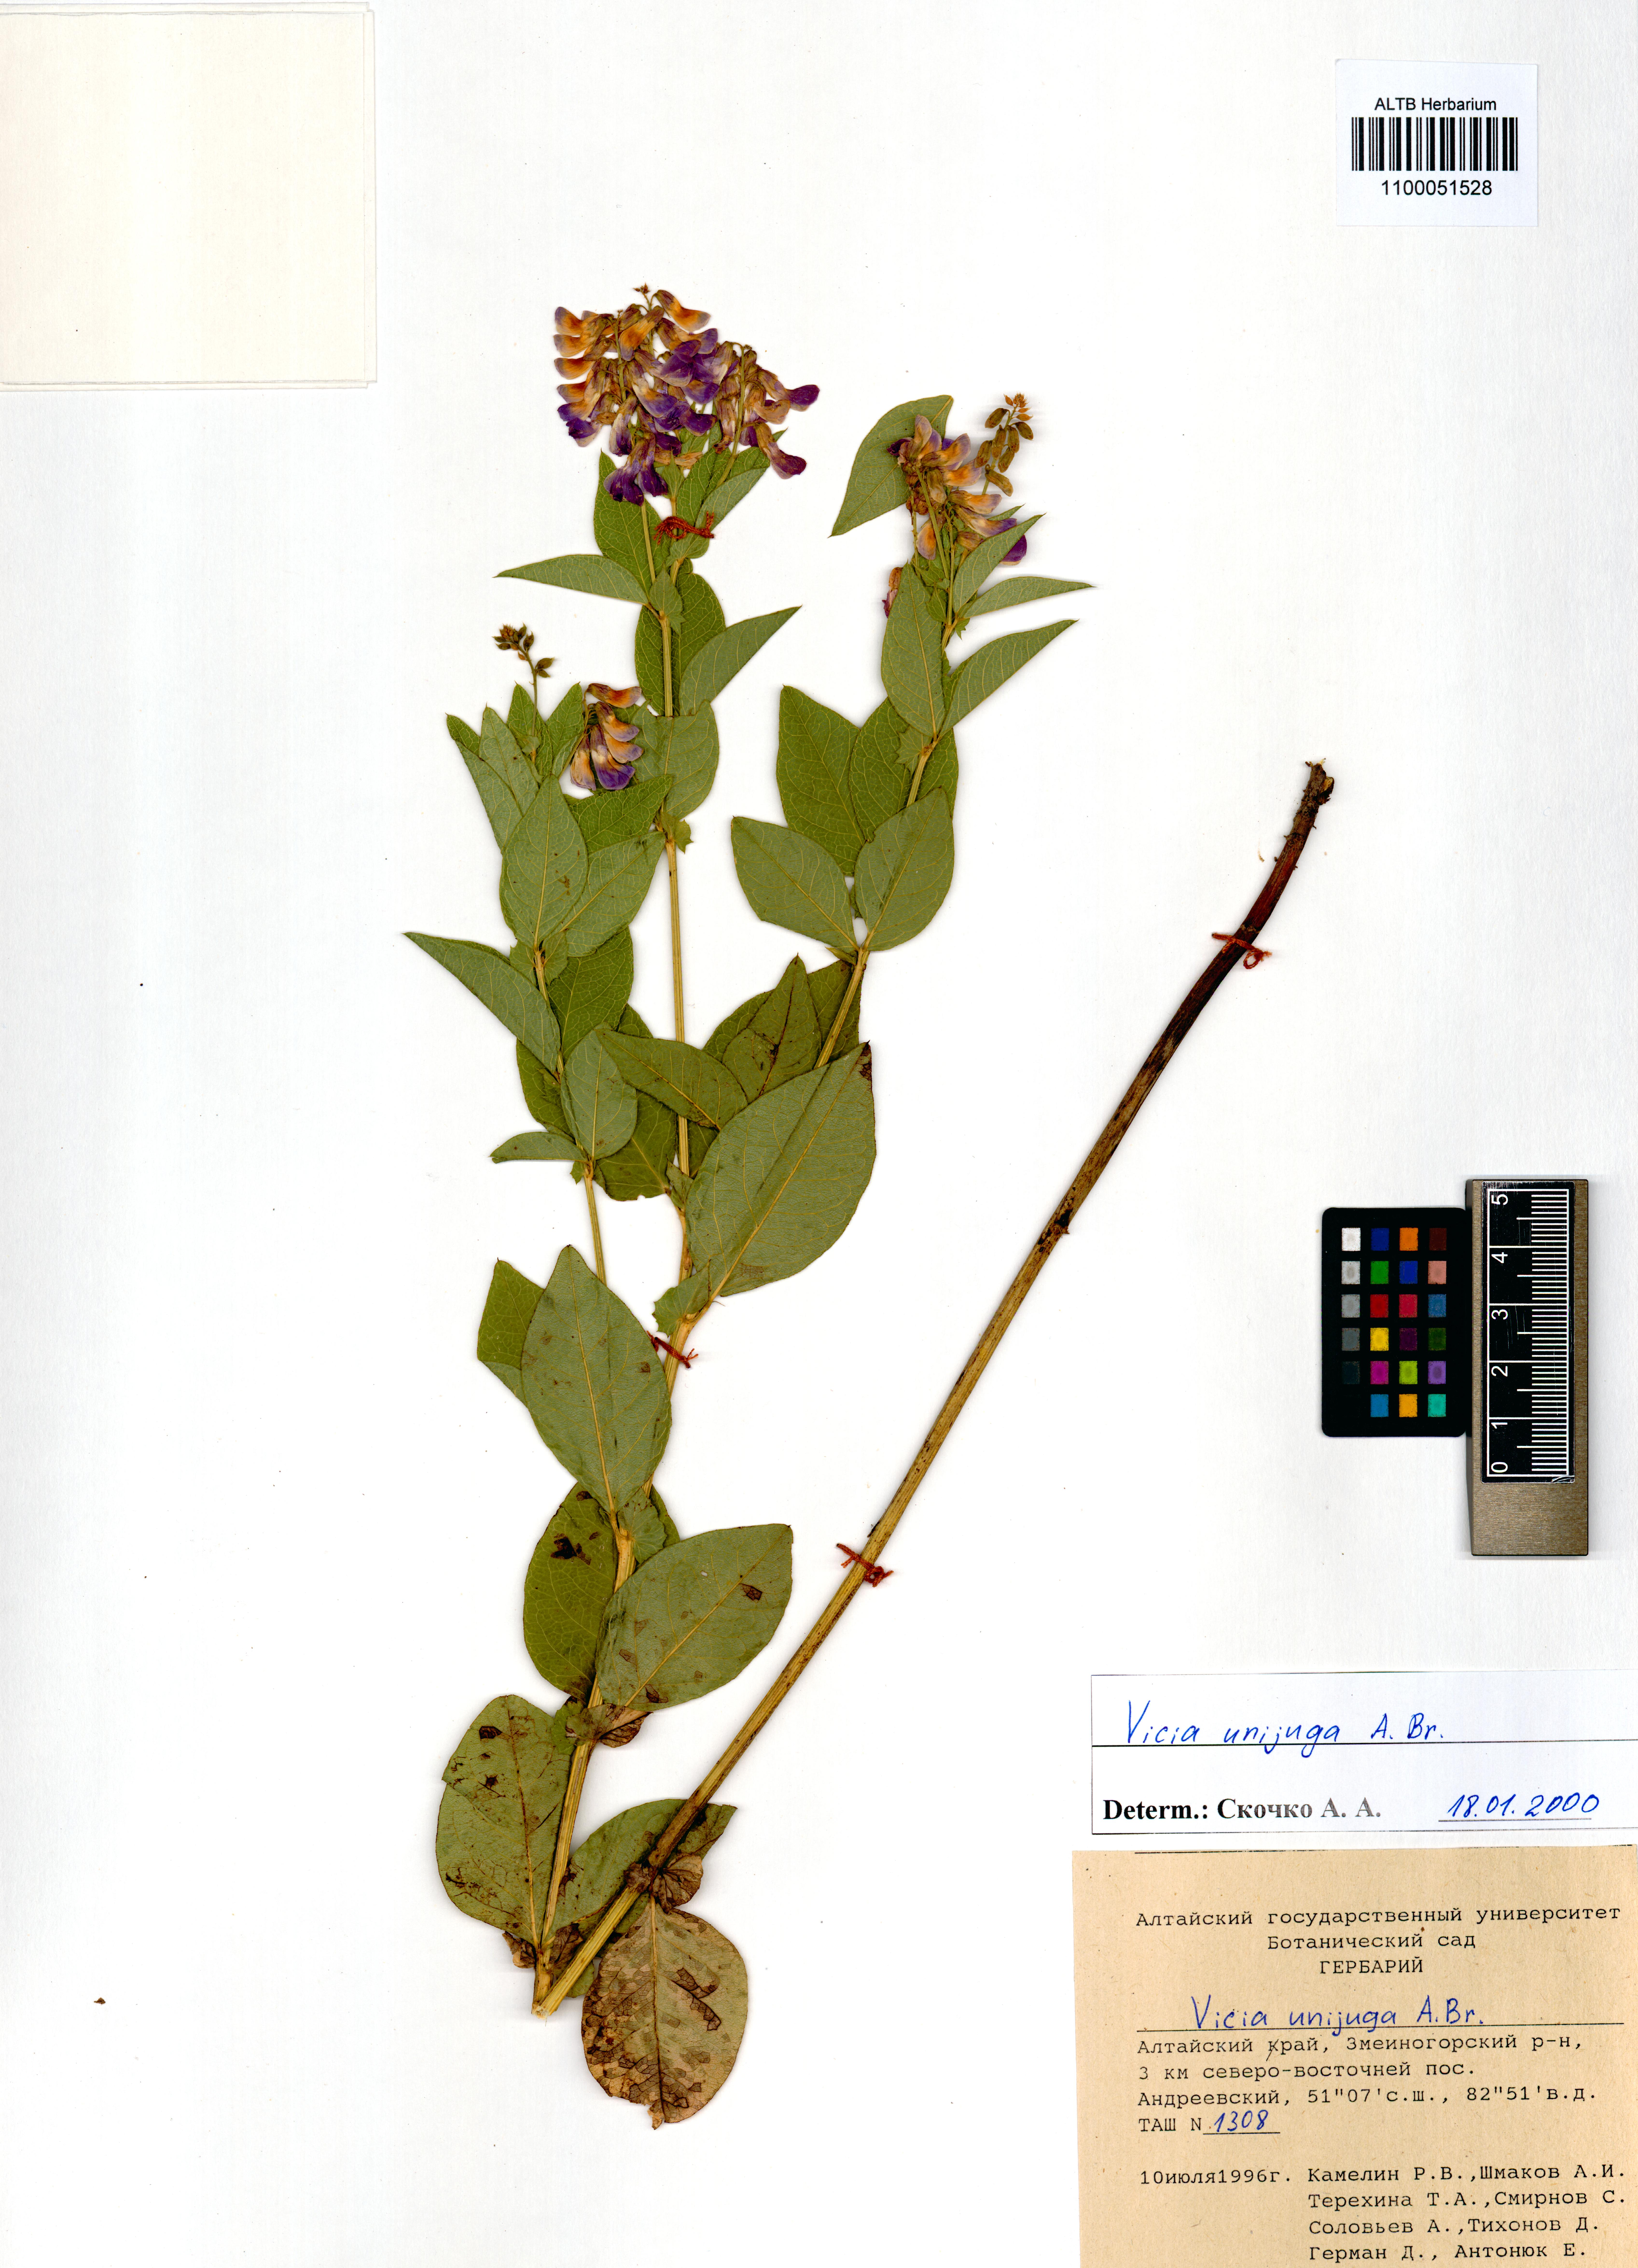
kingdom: Plantae
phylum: Tracheophyta
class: Magnoliopsida
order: Fabales
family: Fabaceae
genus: Vicia
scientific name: Vicia unijuga
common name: Two-leaf vetch
